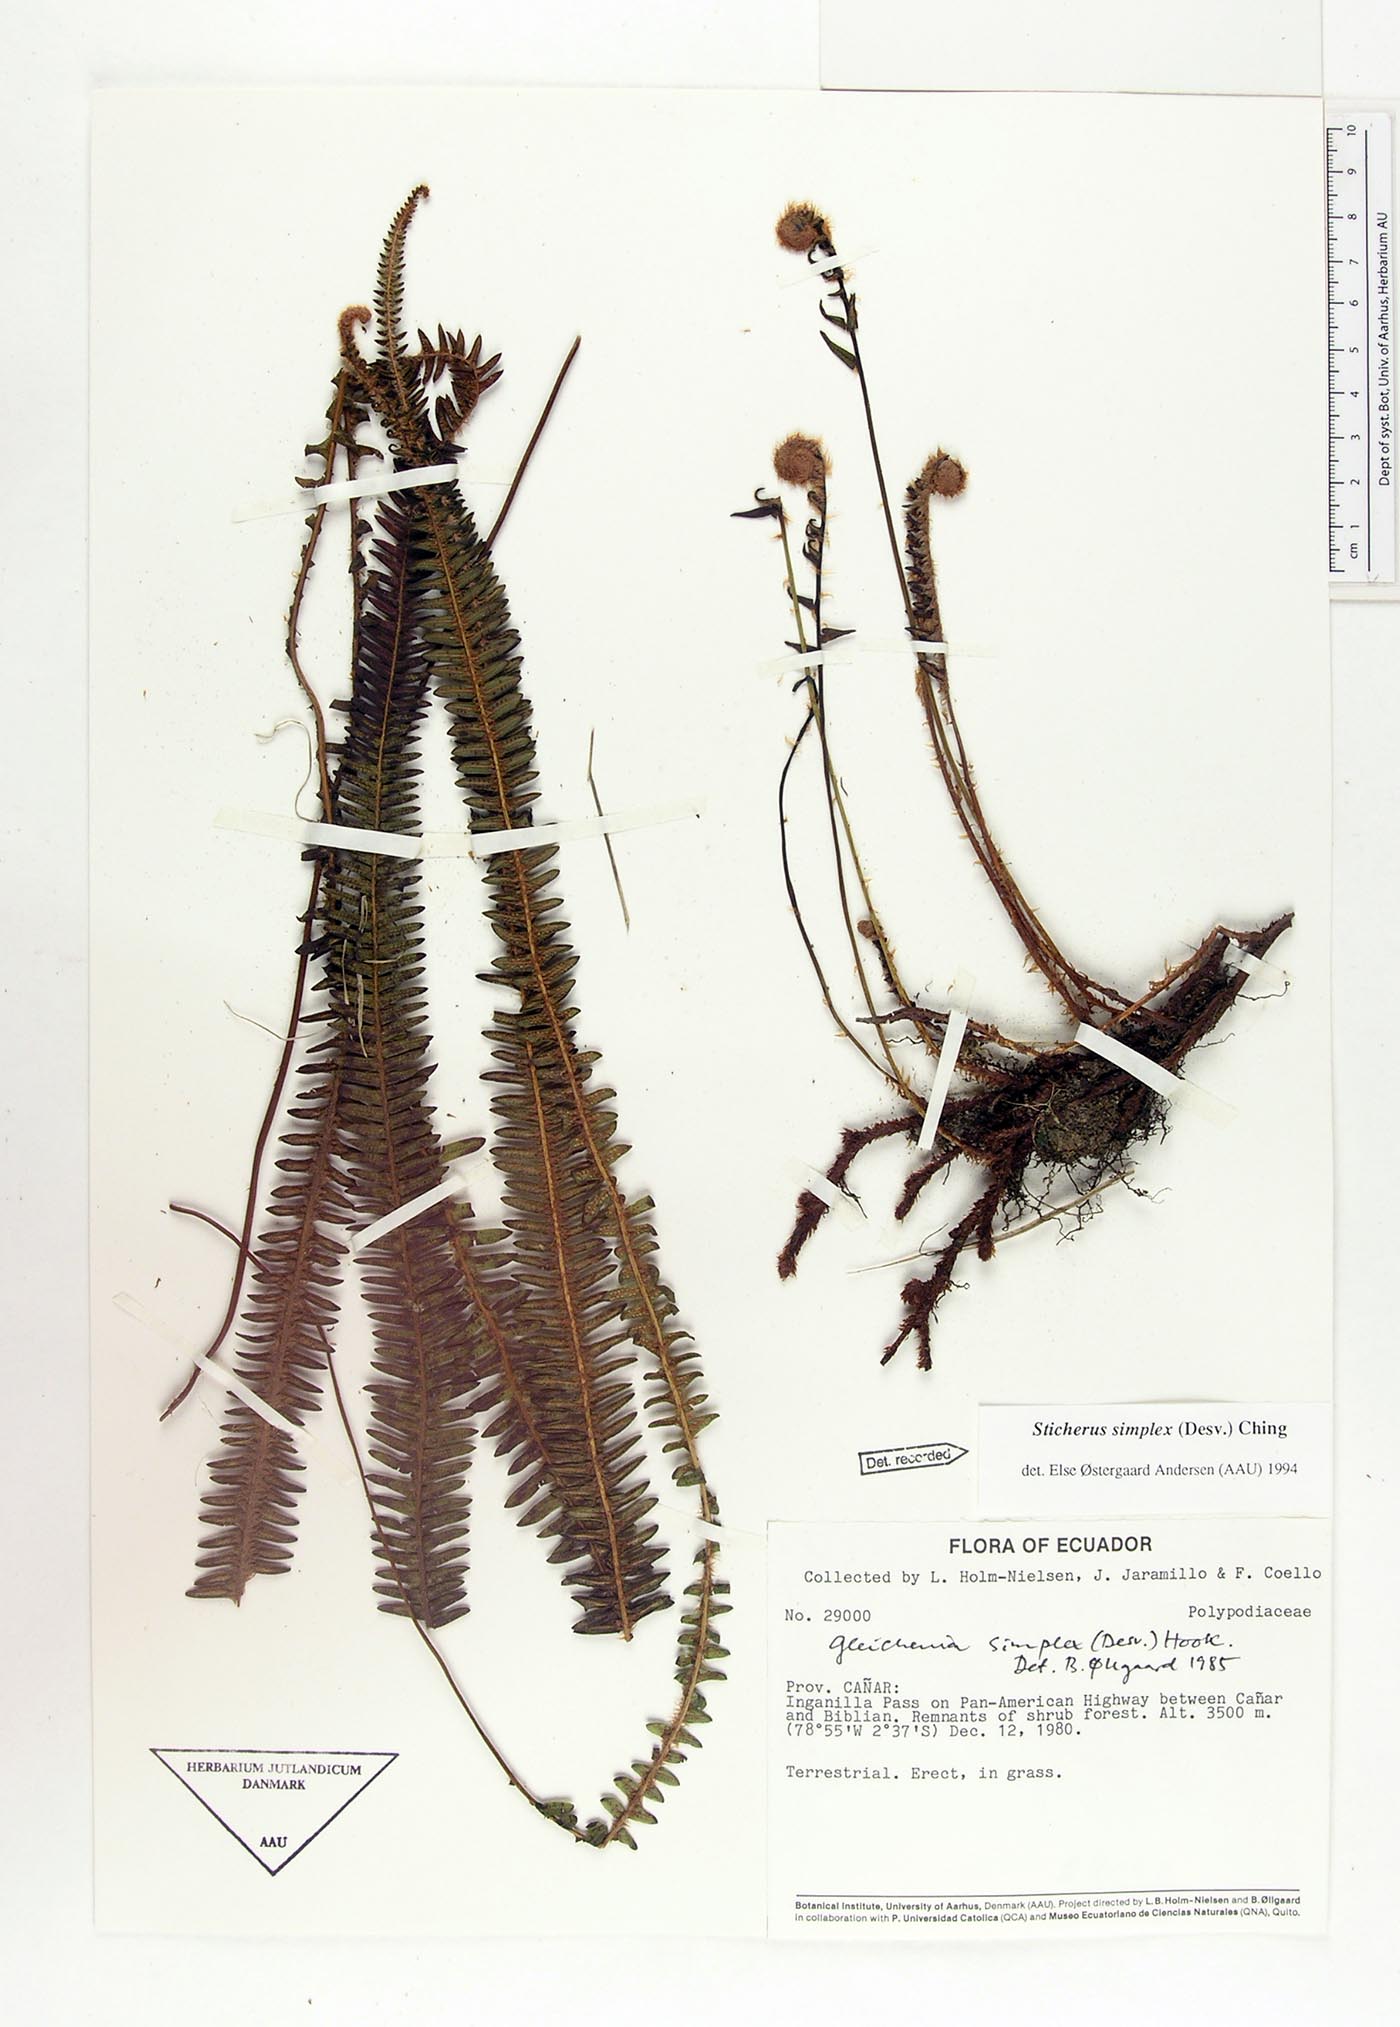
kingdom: Plantae
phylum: Tracheophyta
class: Polypodiopsida
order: Gleicheniales
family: Gleicheniaceae
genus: Sticherus
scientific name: Sticherus simplex
